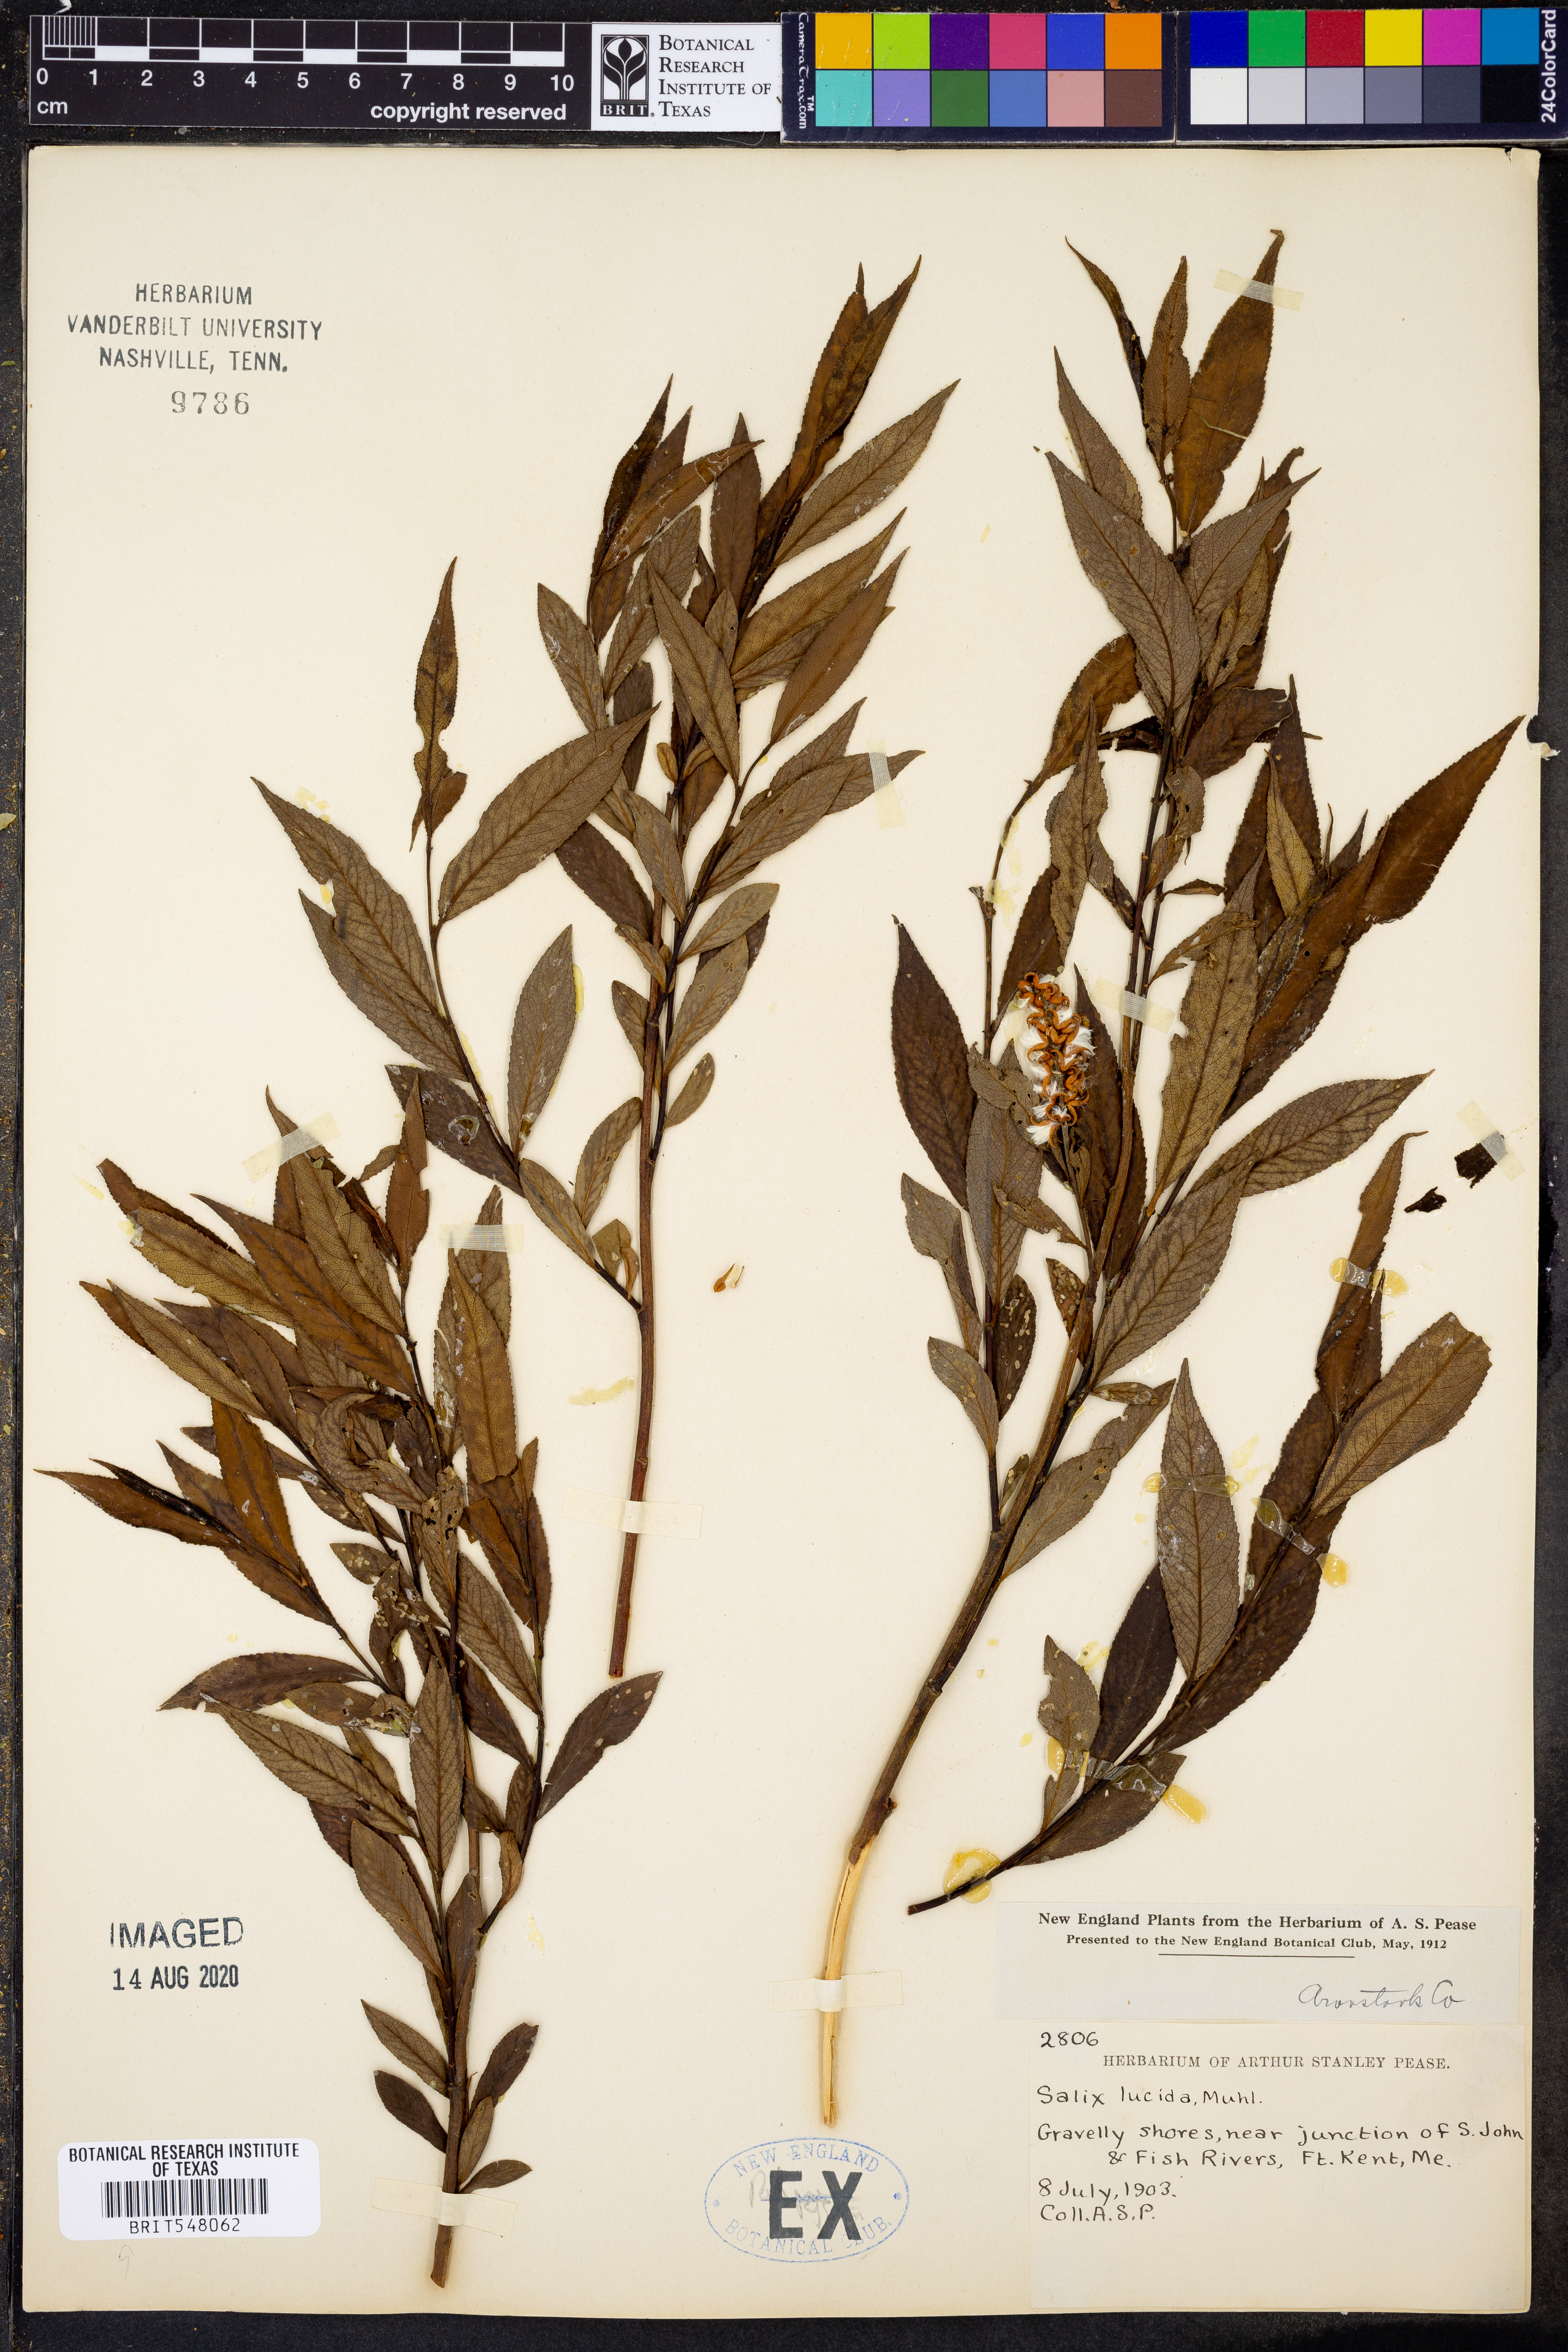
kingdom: Plantae
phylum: Tracheophyta
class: Magnoliopsida
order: Malpighiales
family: Salicaceae
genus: Salix
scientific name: Salix lucida
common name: Shining willow
